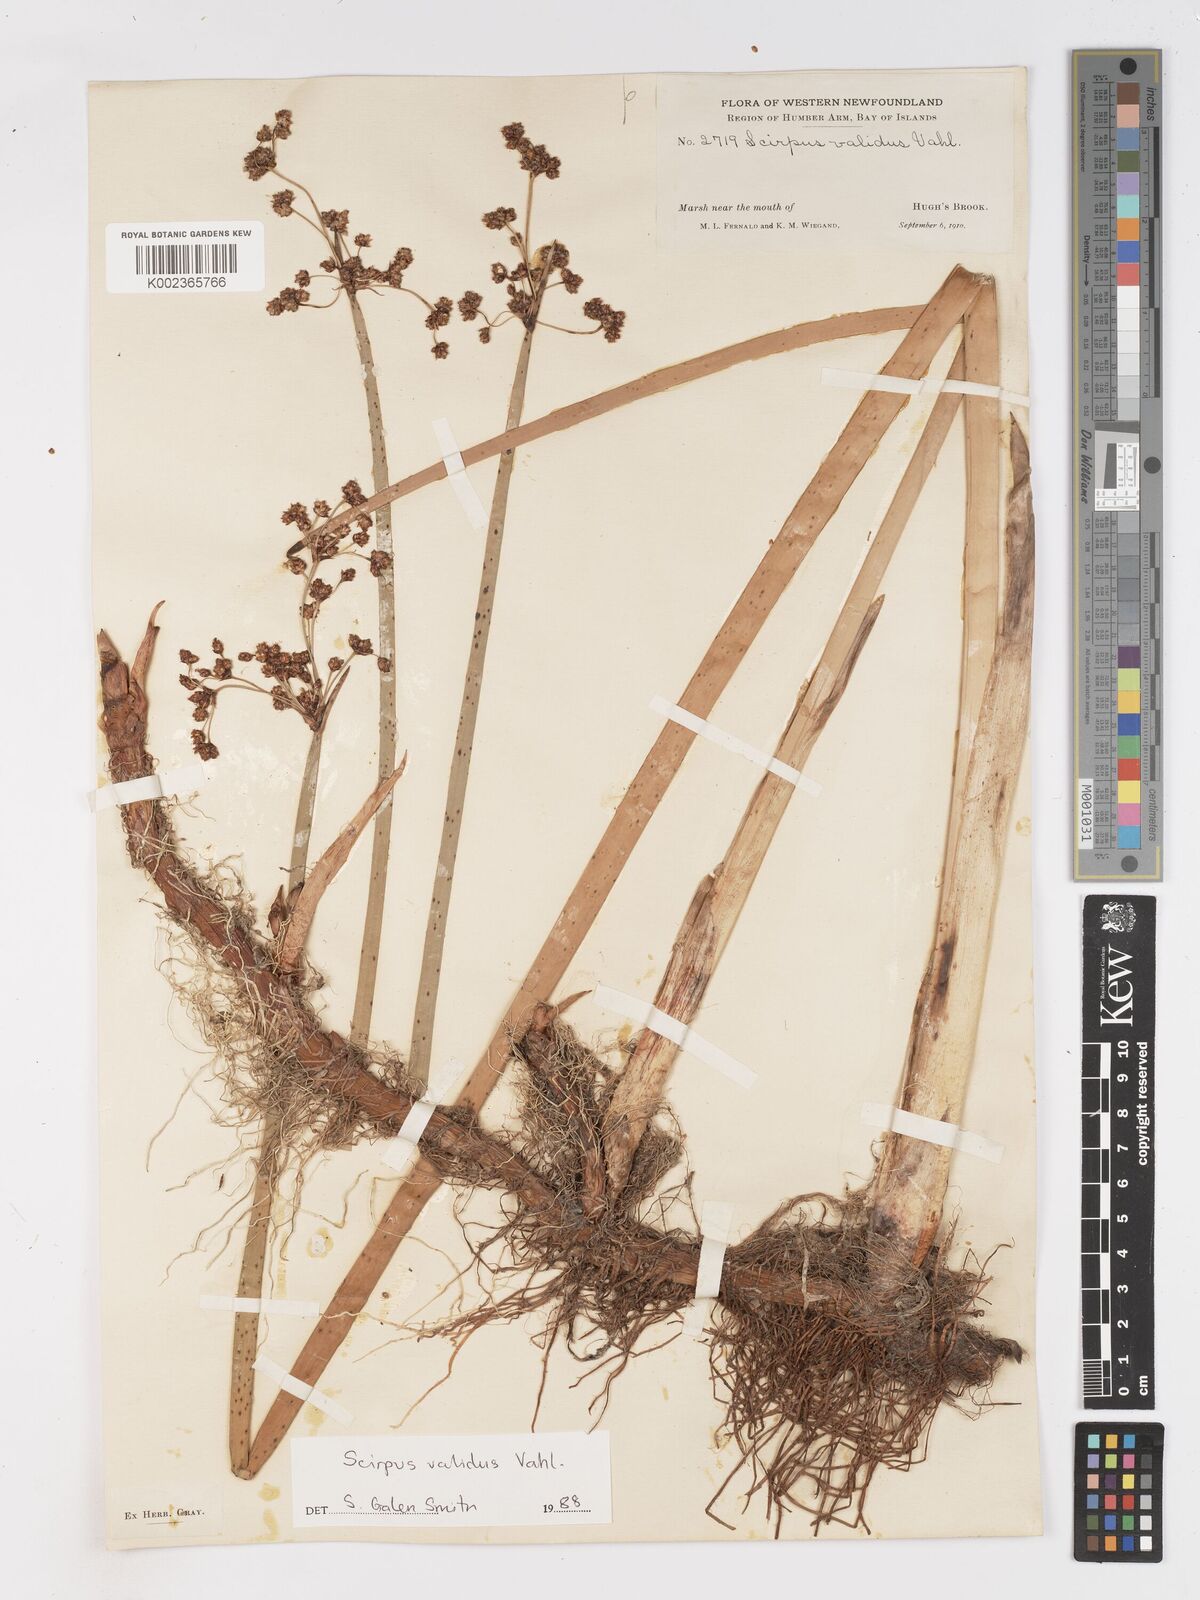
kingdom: Plantae
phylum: Tracheophyta
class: Liliopsida
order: Poales
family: Cyperaceae
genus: Schoenoplectus
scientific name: Schoenoplectus tabernaemontani
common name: Grey club-rush
